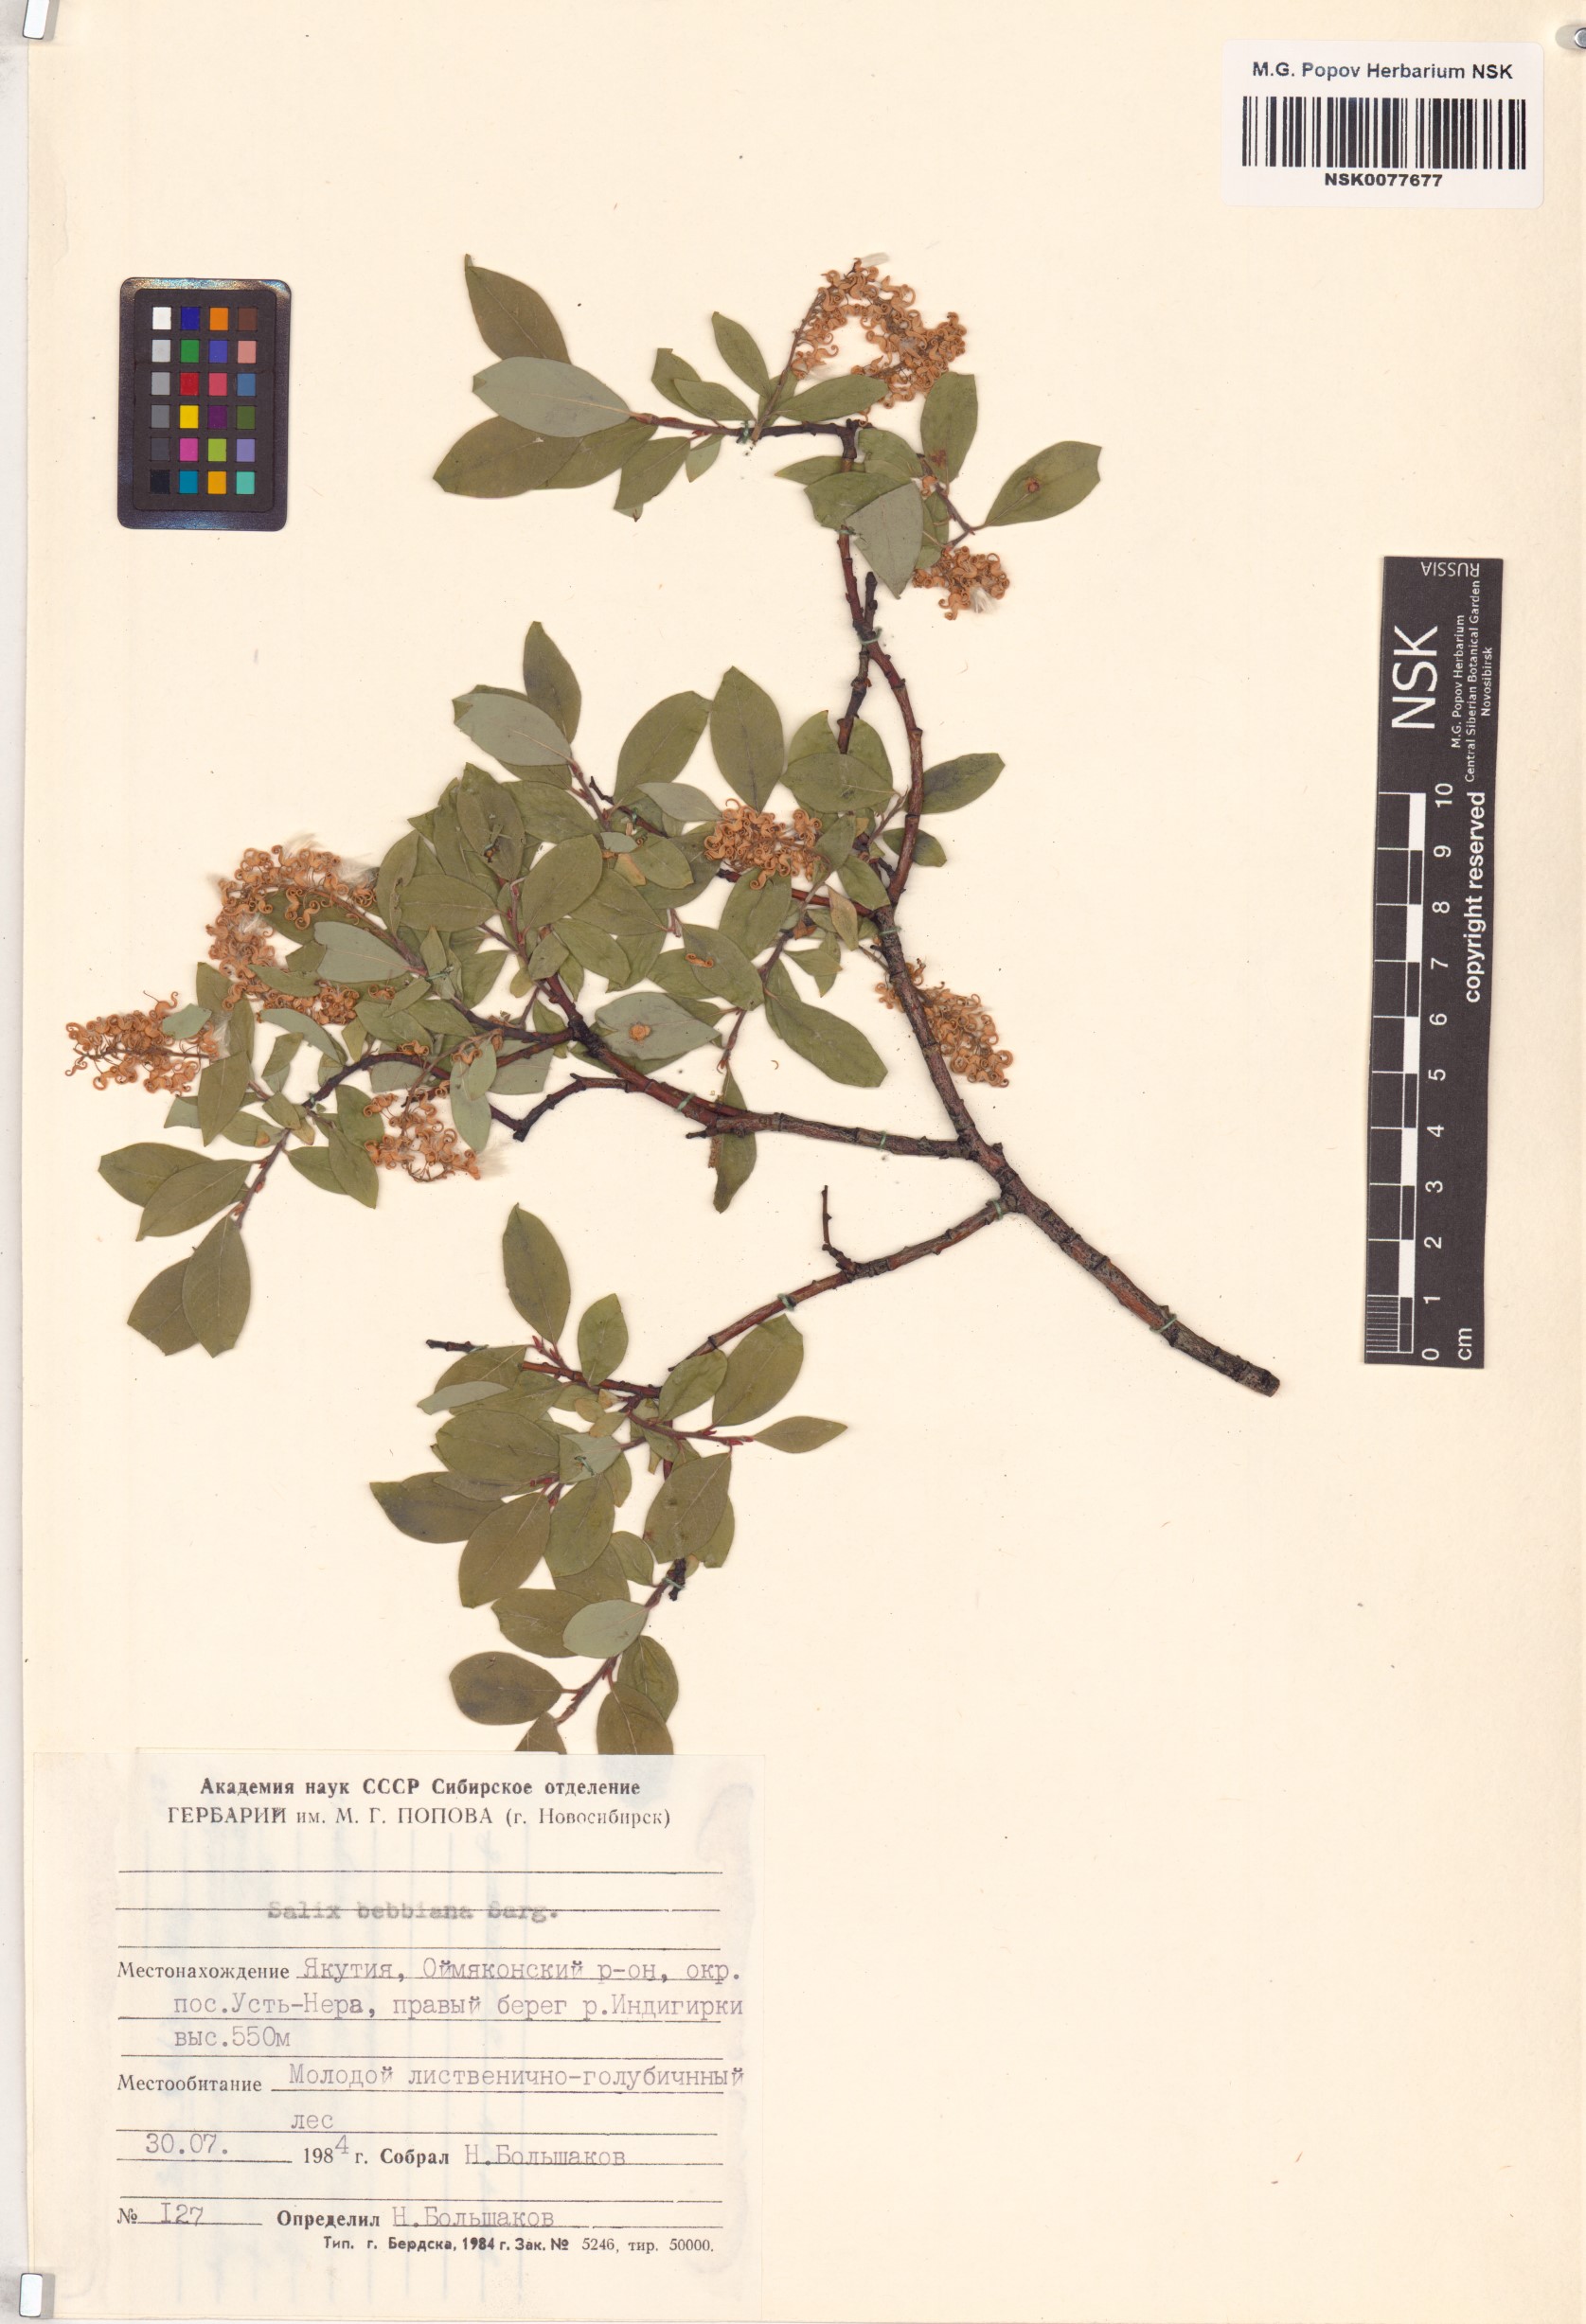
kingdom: Plantae
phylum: Tracheophyta
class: Magnoliopsida
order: Malpighiales
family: Salicaceae
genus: Salix
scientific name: Salix bebbiana
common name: Bebb's willow
